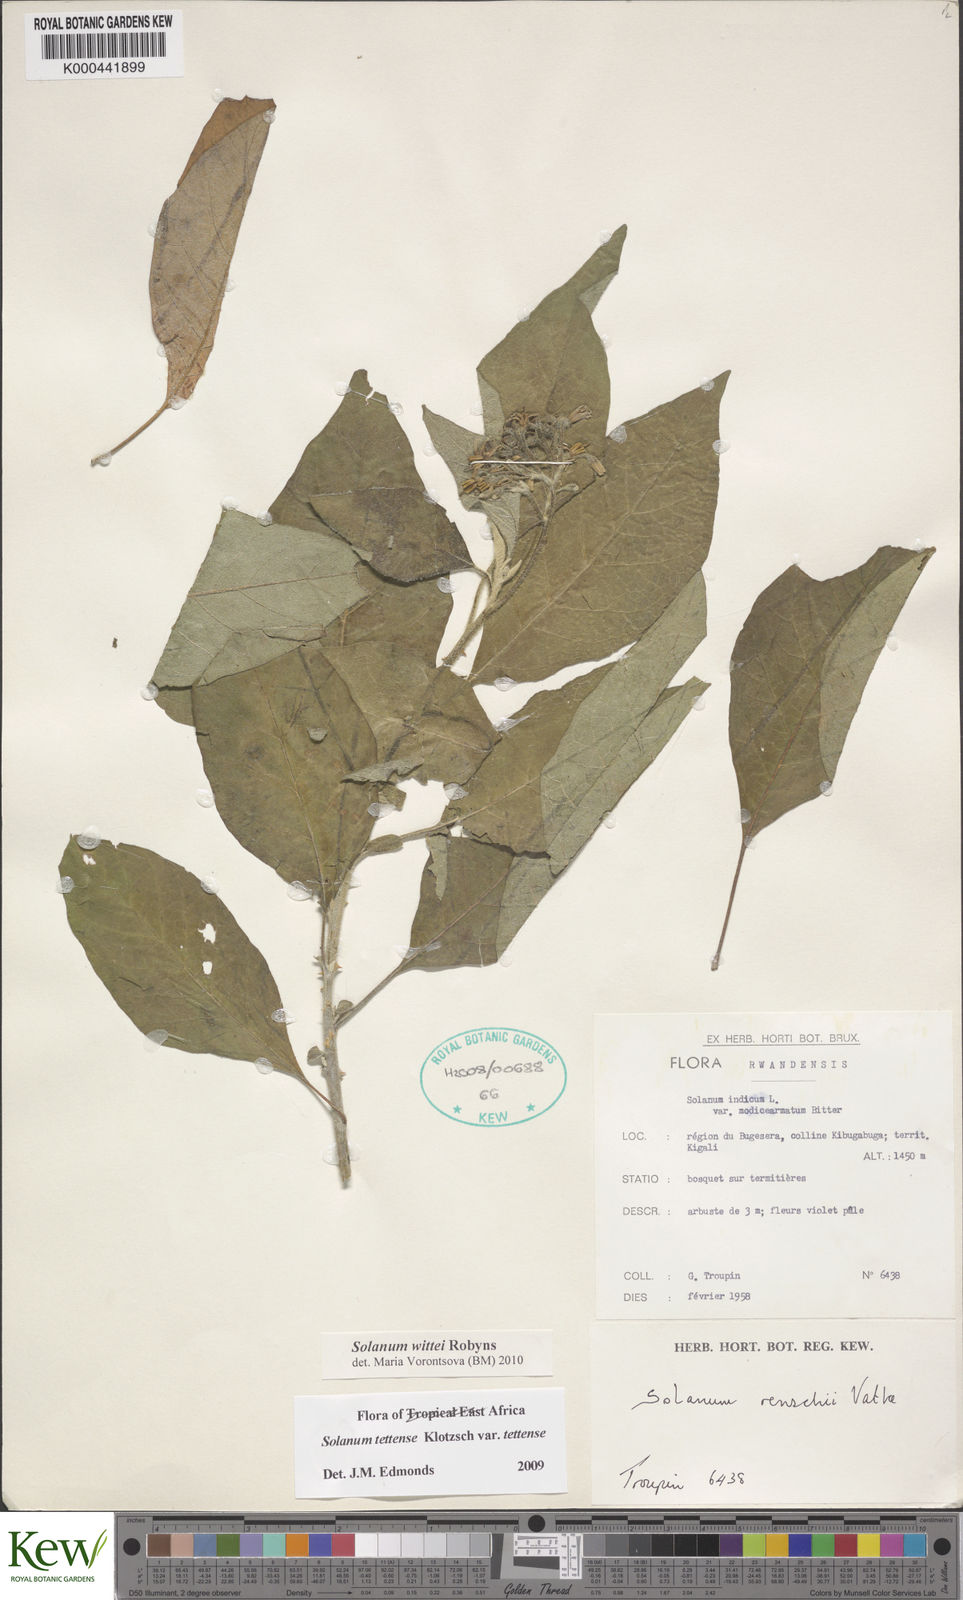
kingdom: Plantae
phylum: Tracheophyta
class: Magnoliopsida
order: Solanales
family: Solanaceae
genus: Solanum
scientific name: Solanum wittei
